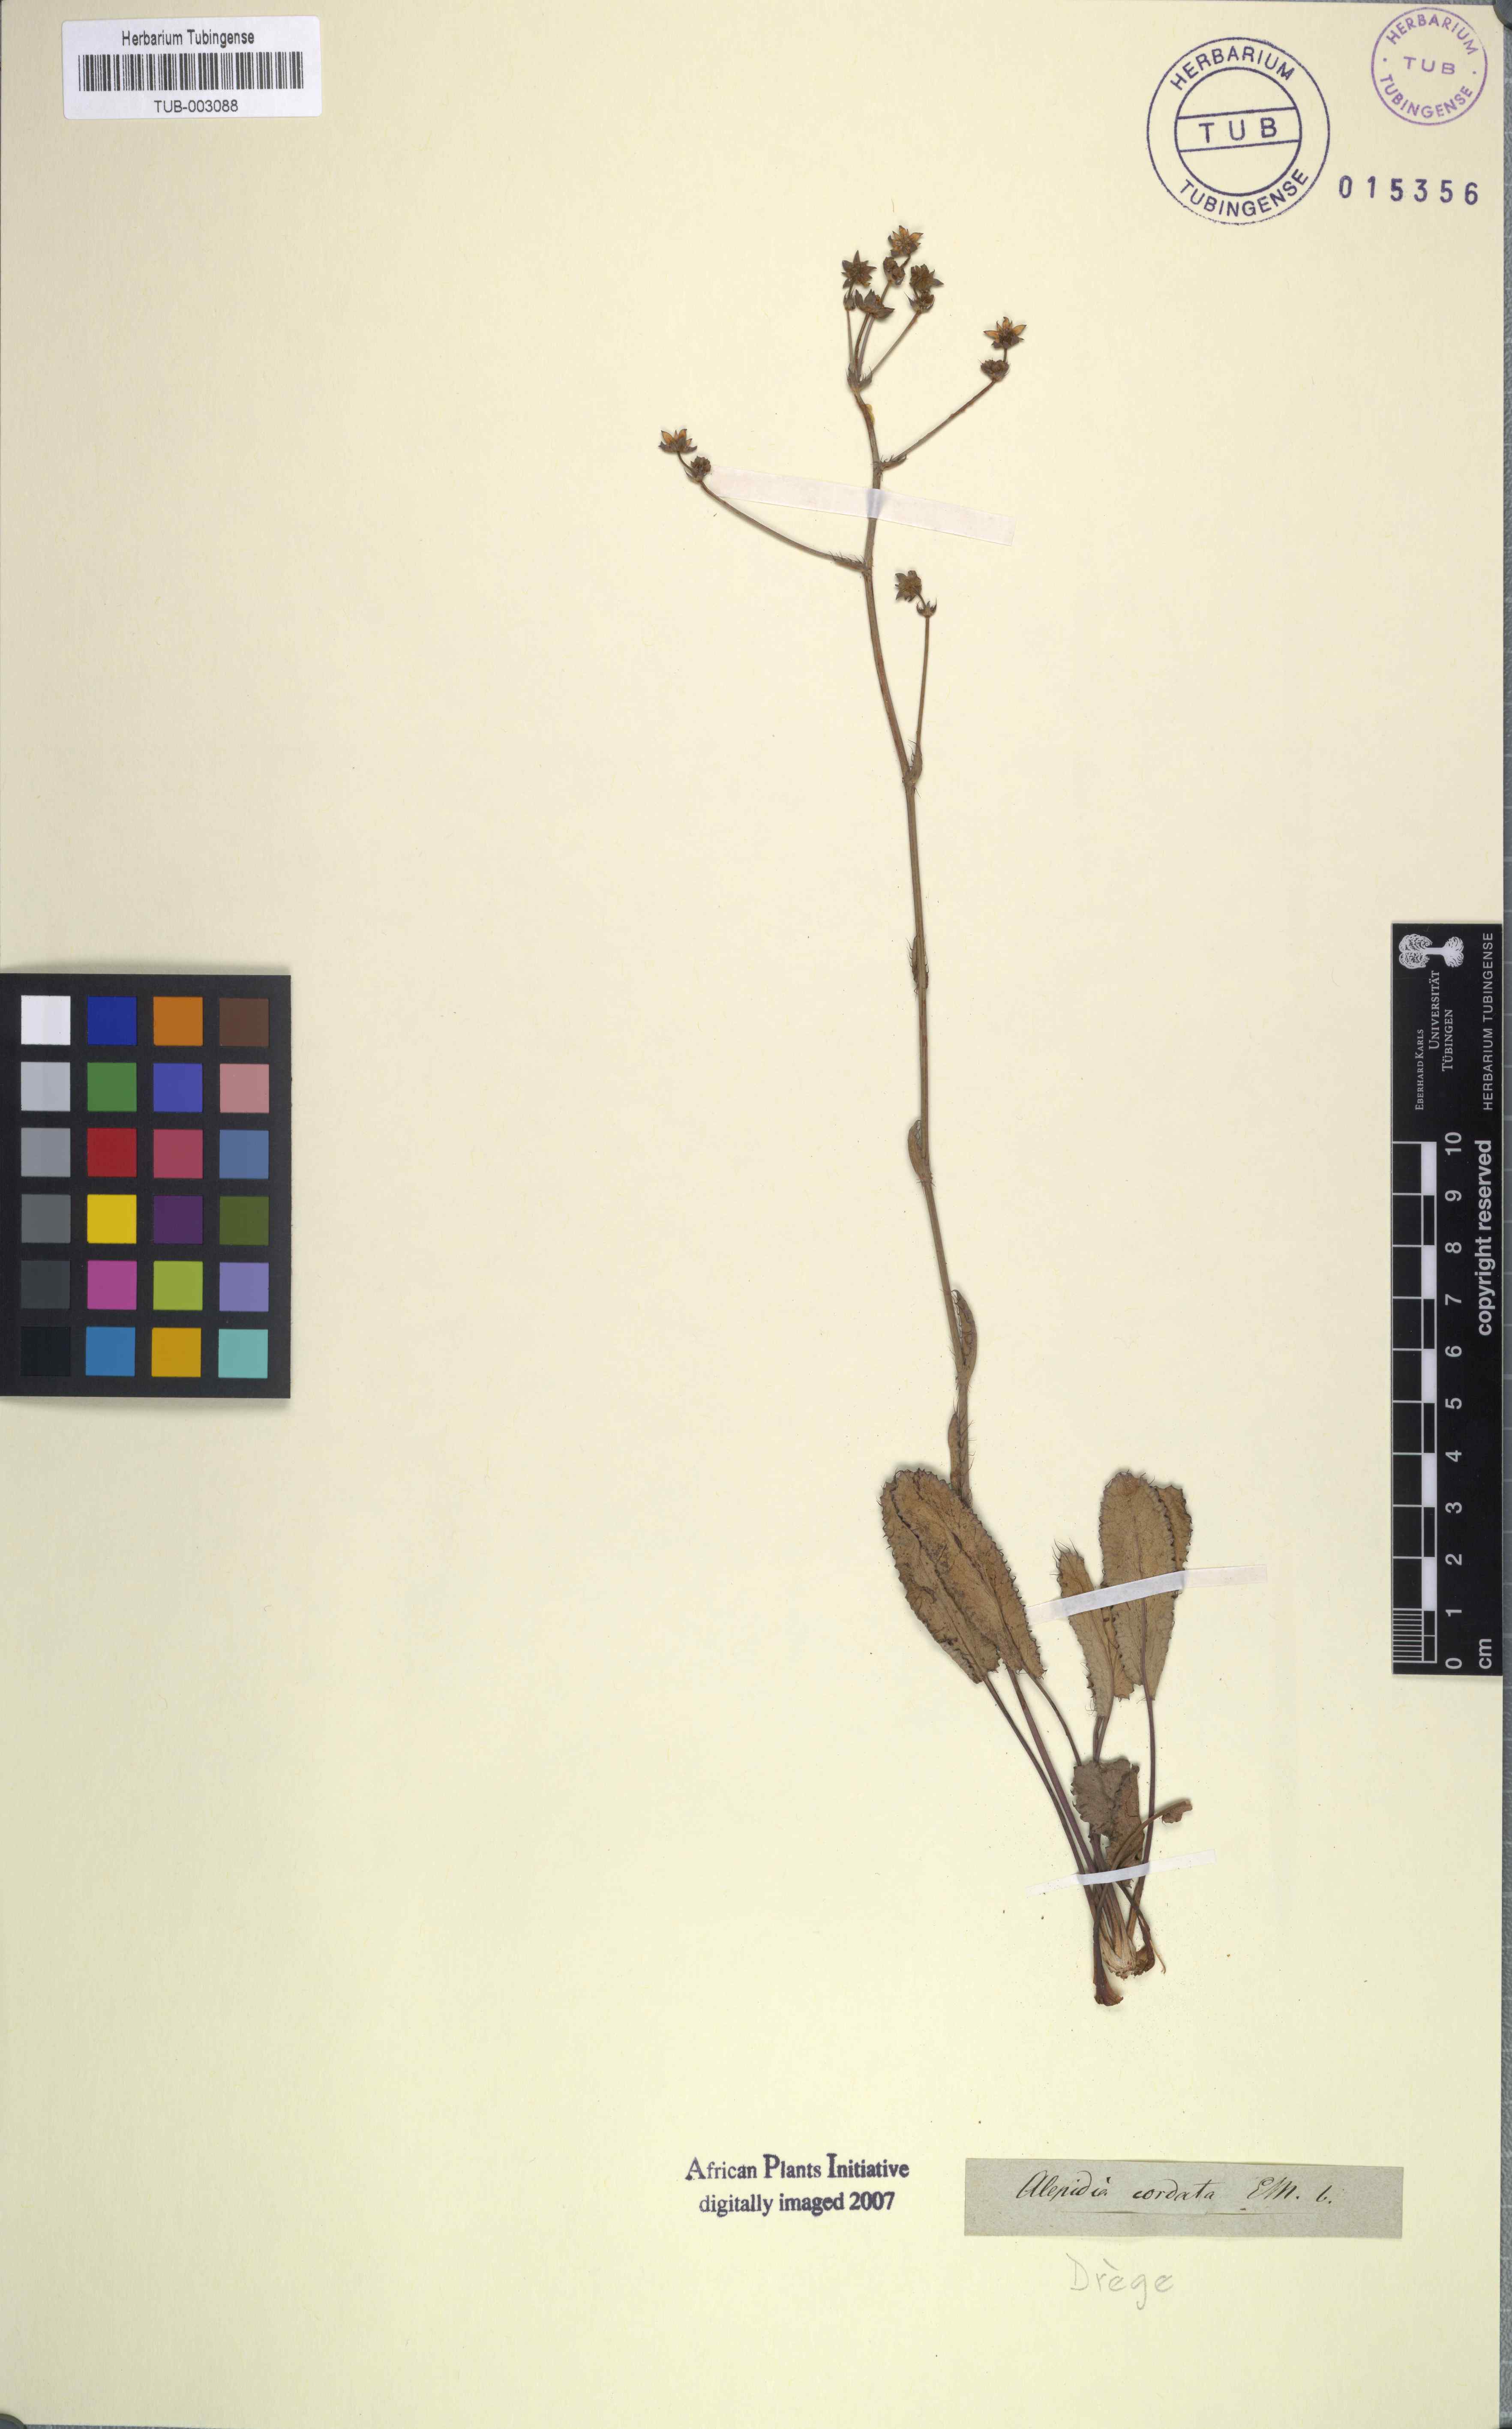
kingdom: Plantae
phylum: Tracheophyta
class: Magnoliopsida
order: Apiales
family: Apiaceae
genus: Alepidea
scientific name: Alepidea capensis
